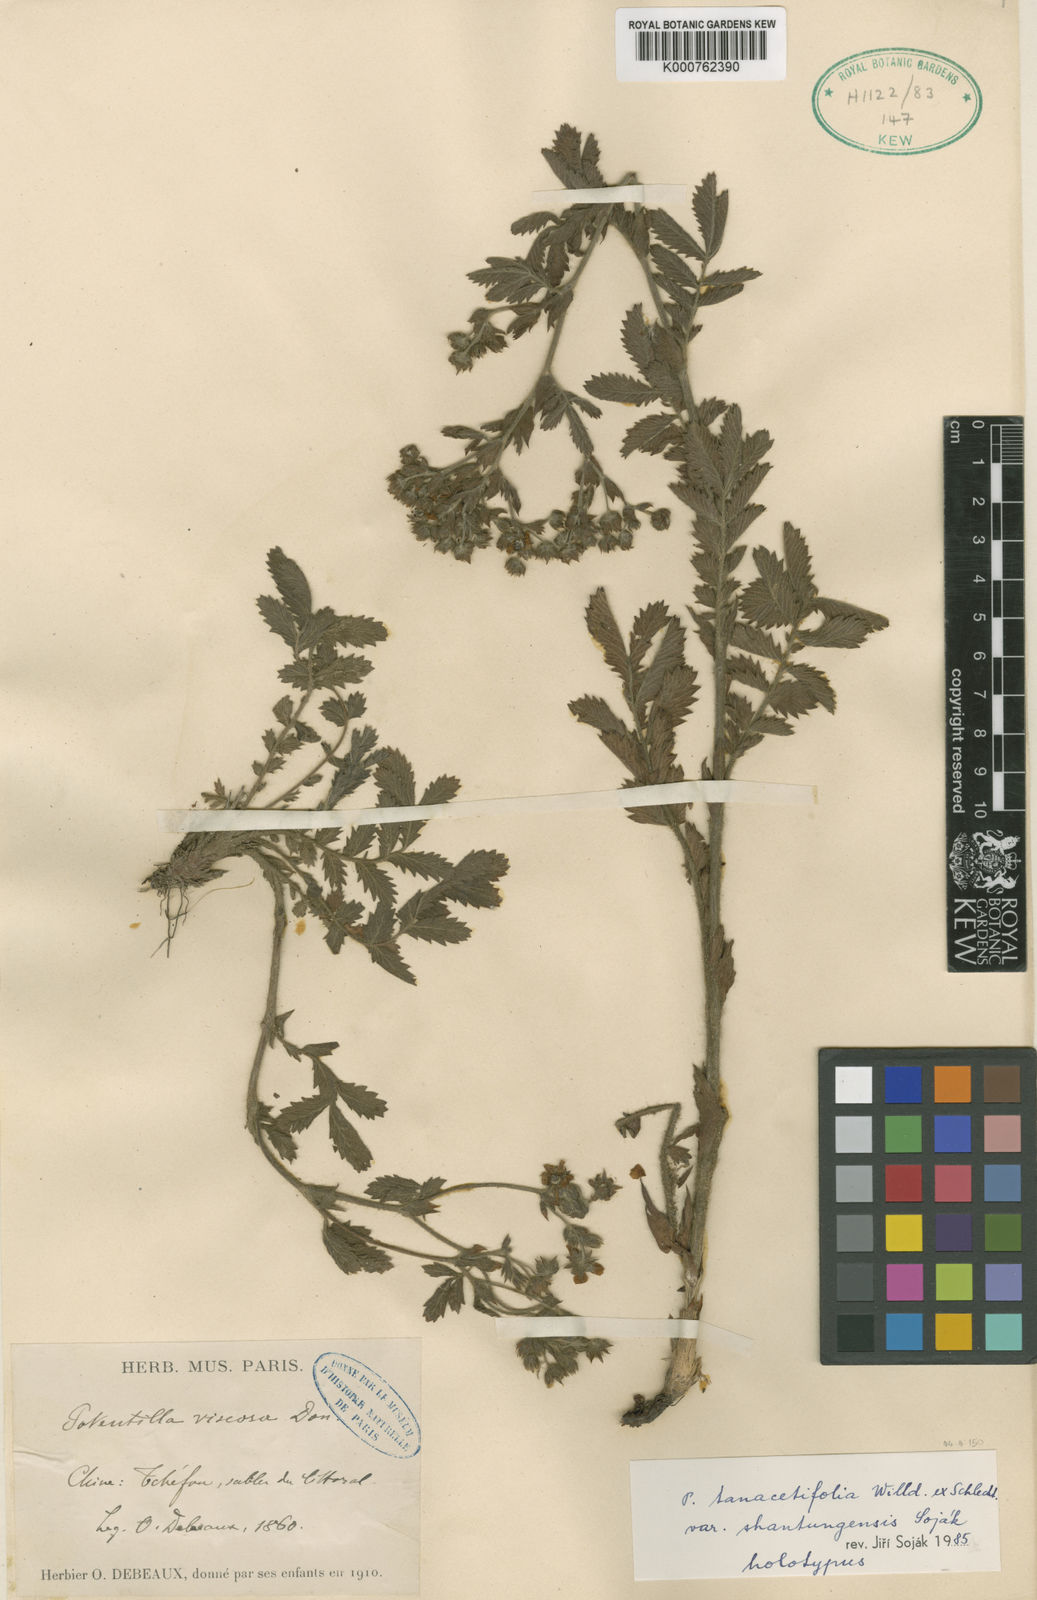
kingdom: Plantae
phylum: Tracheophyta
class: Magnoliopsida
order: Rosales
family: Rosaceae
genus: Potentilla
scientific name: Potentilla tanacetifolia
